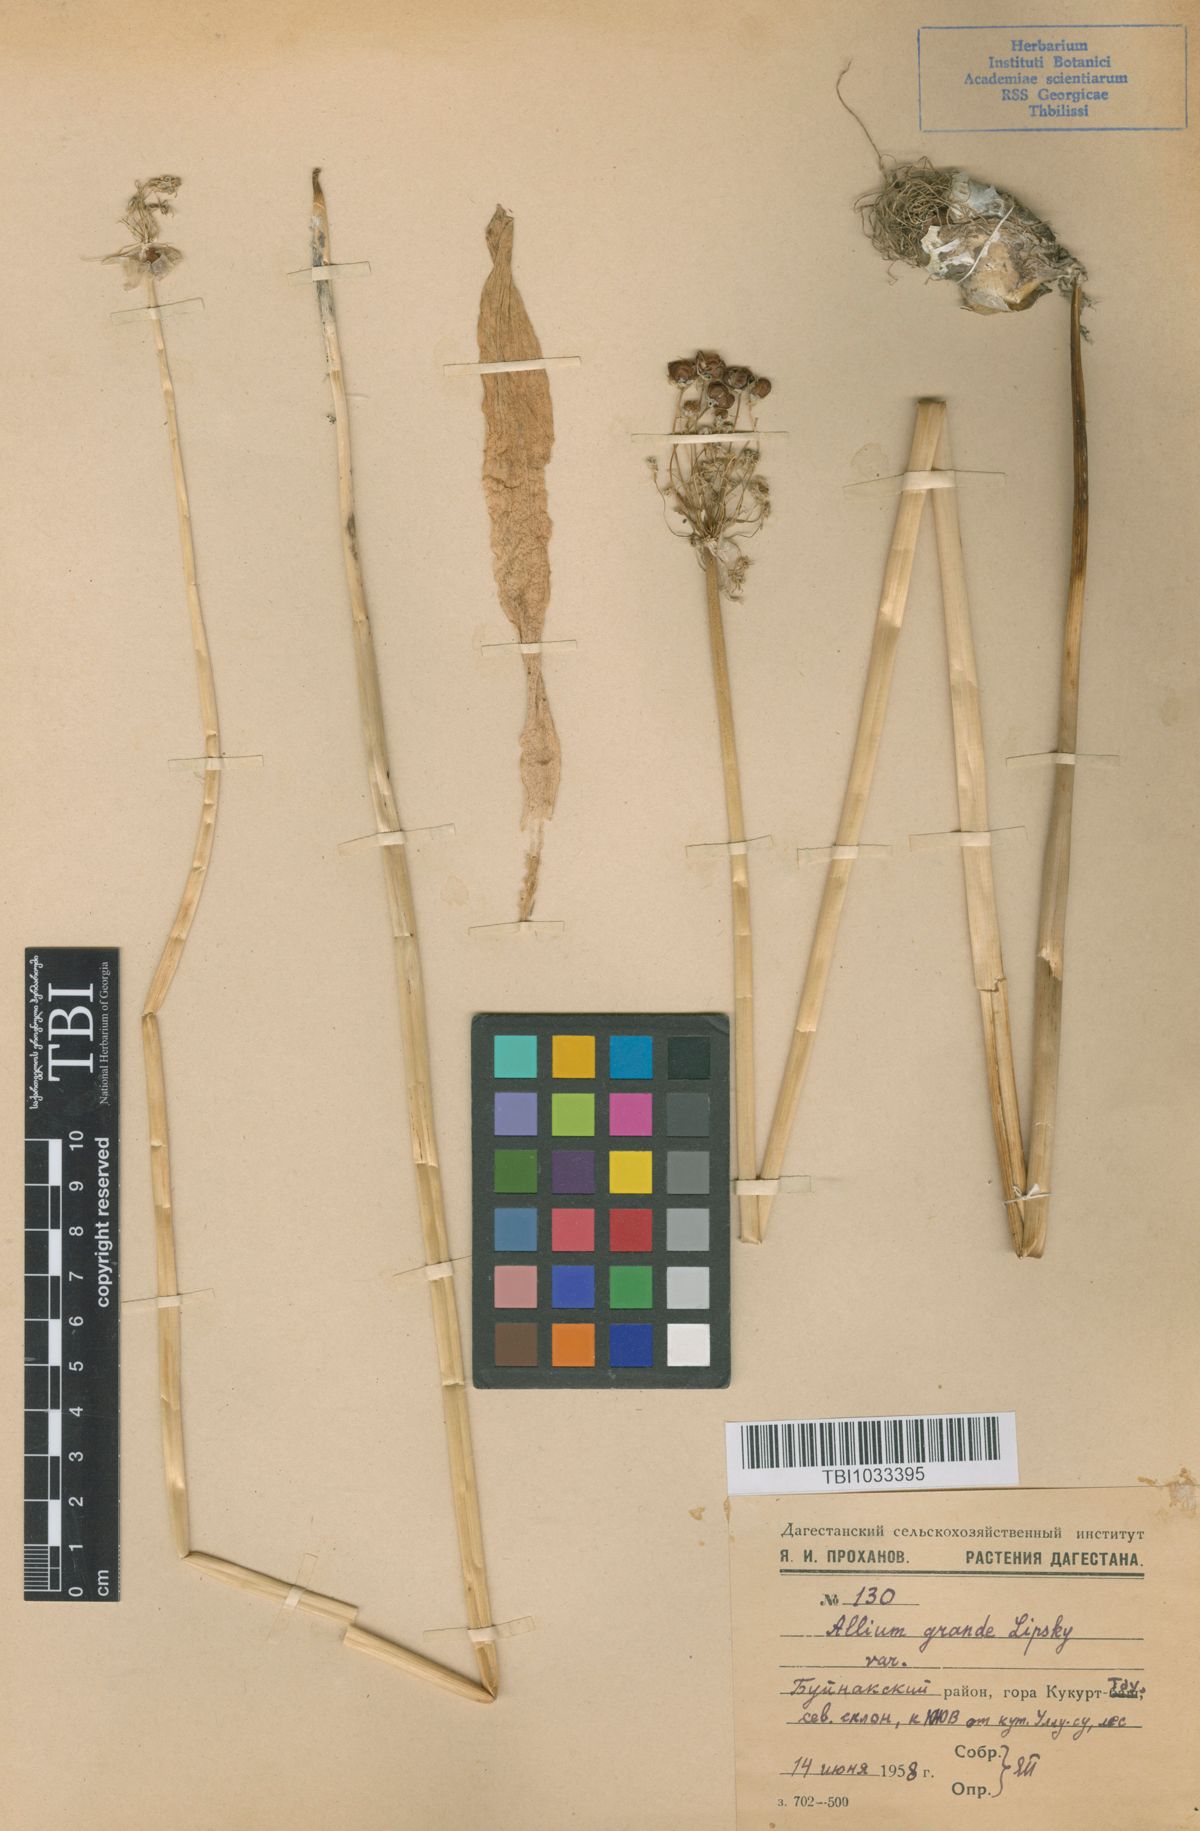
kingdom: Plantae
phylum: Tracheophyta
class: Liliopsida
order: Asparagales
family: Amaryllidaceae
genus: Allium
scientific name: Allium grande
